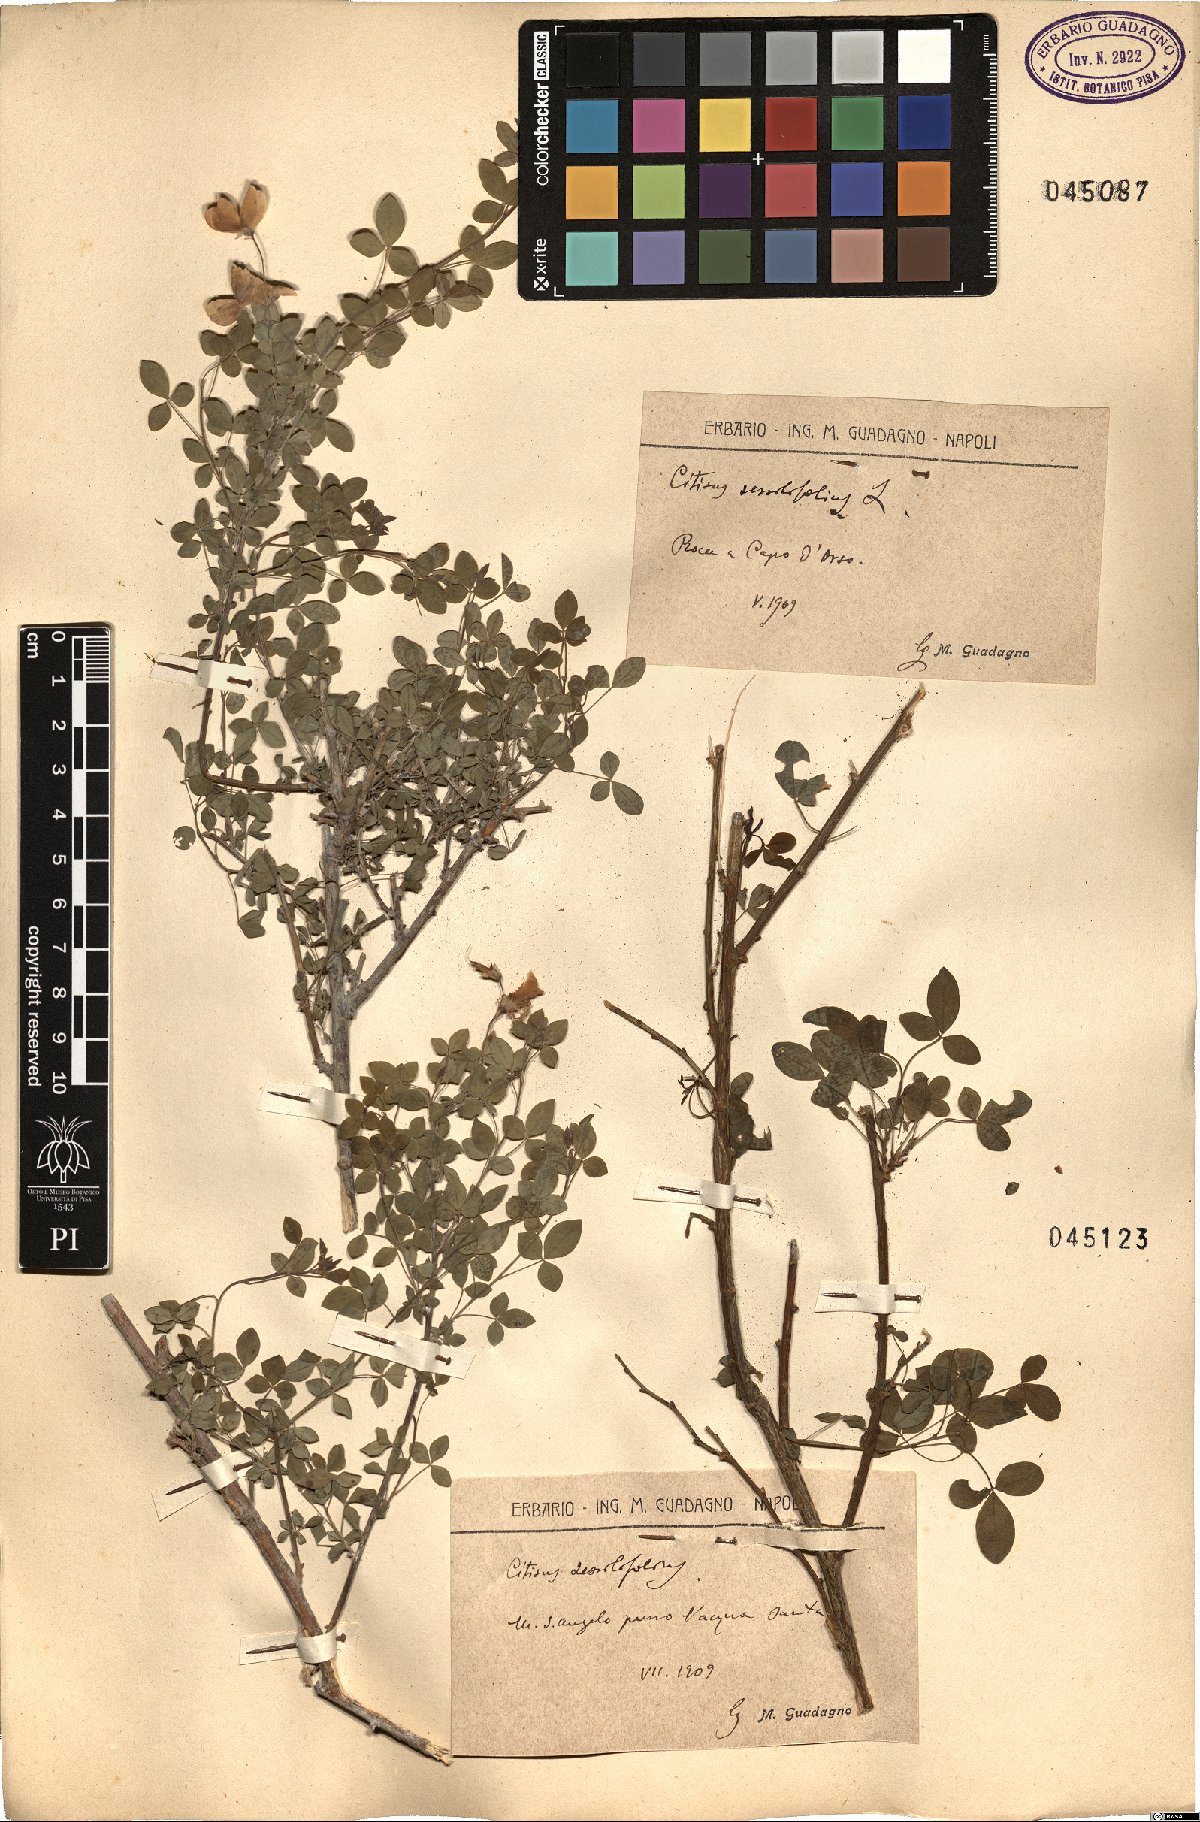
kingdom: Plantae
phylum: Tracheophyta
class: Magnoliopsida
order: Fabales
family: Fabaceae
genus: Cytisophyllum
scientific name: Cytisophyllum sessilifolium
